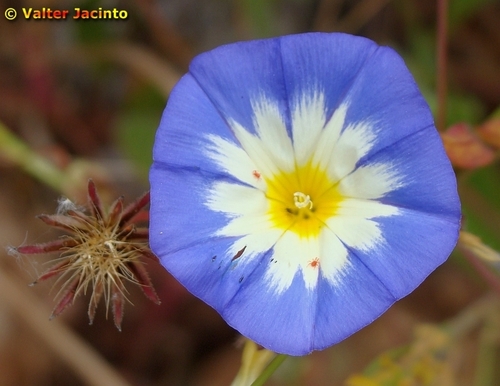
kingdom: Plantae
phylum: Tracheophyta
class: Magnoliopsida
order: Solanales
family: Convolvulaceae
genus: Convolvulus
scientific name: Convolvulus tricolor
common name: Dwarf morning-glory
